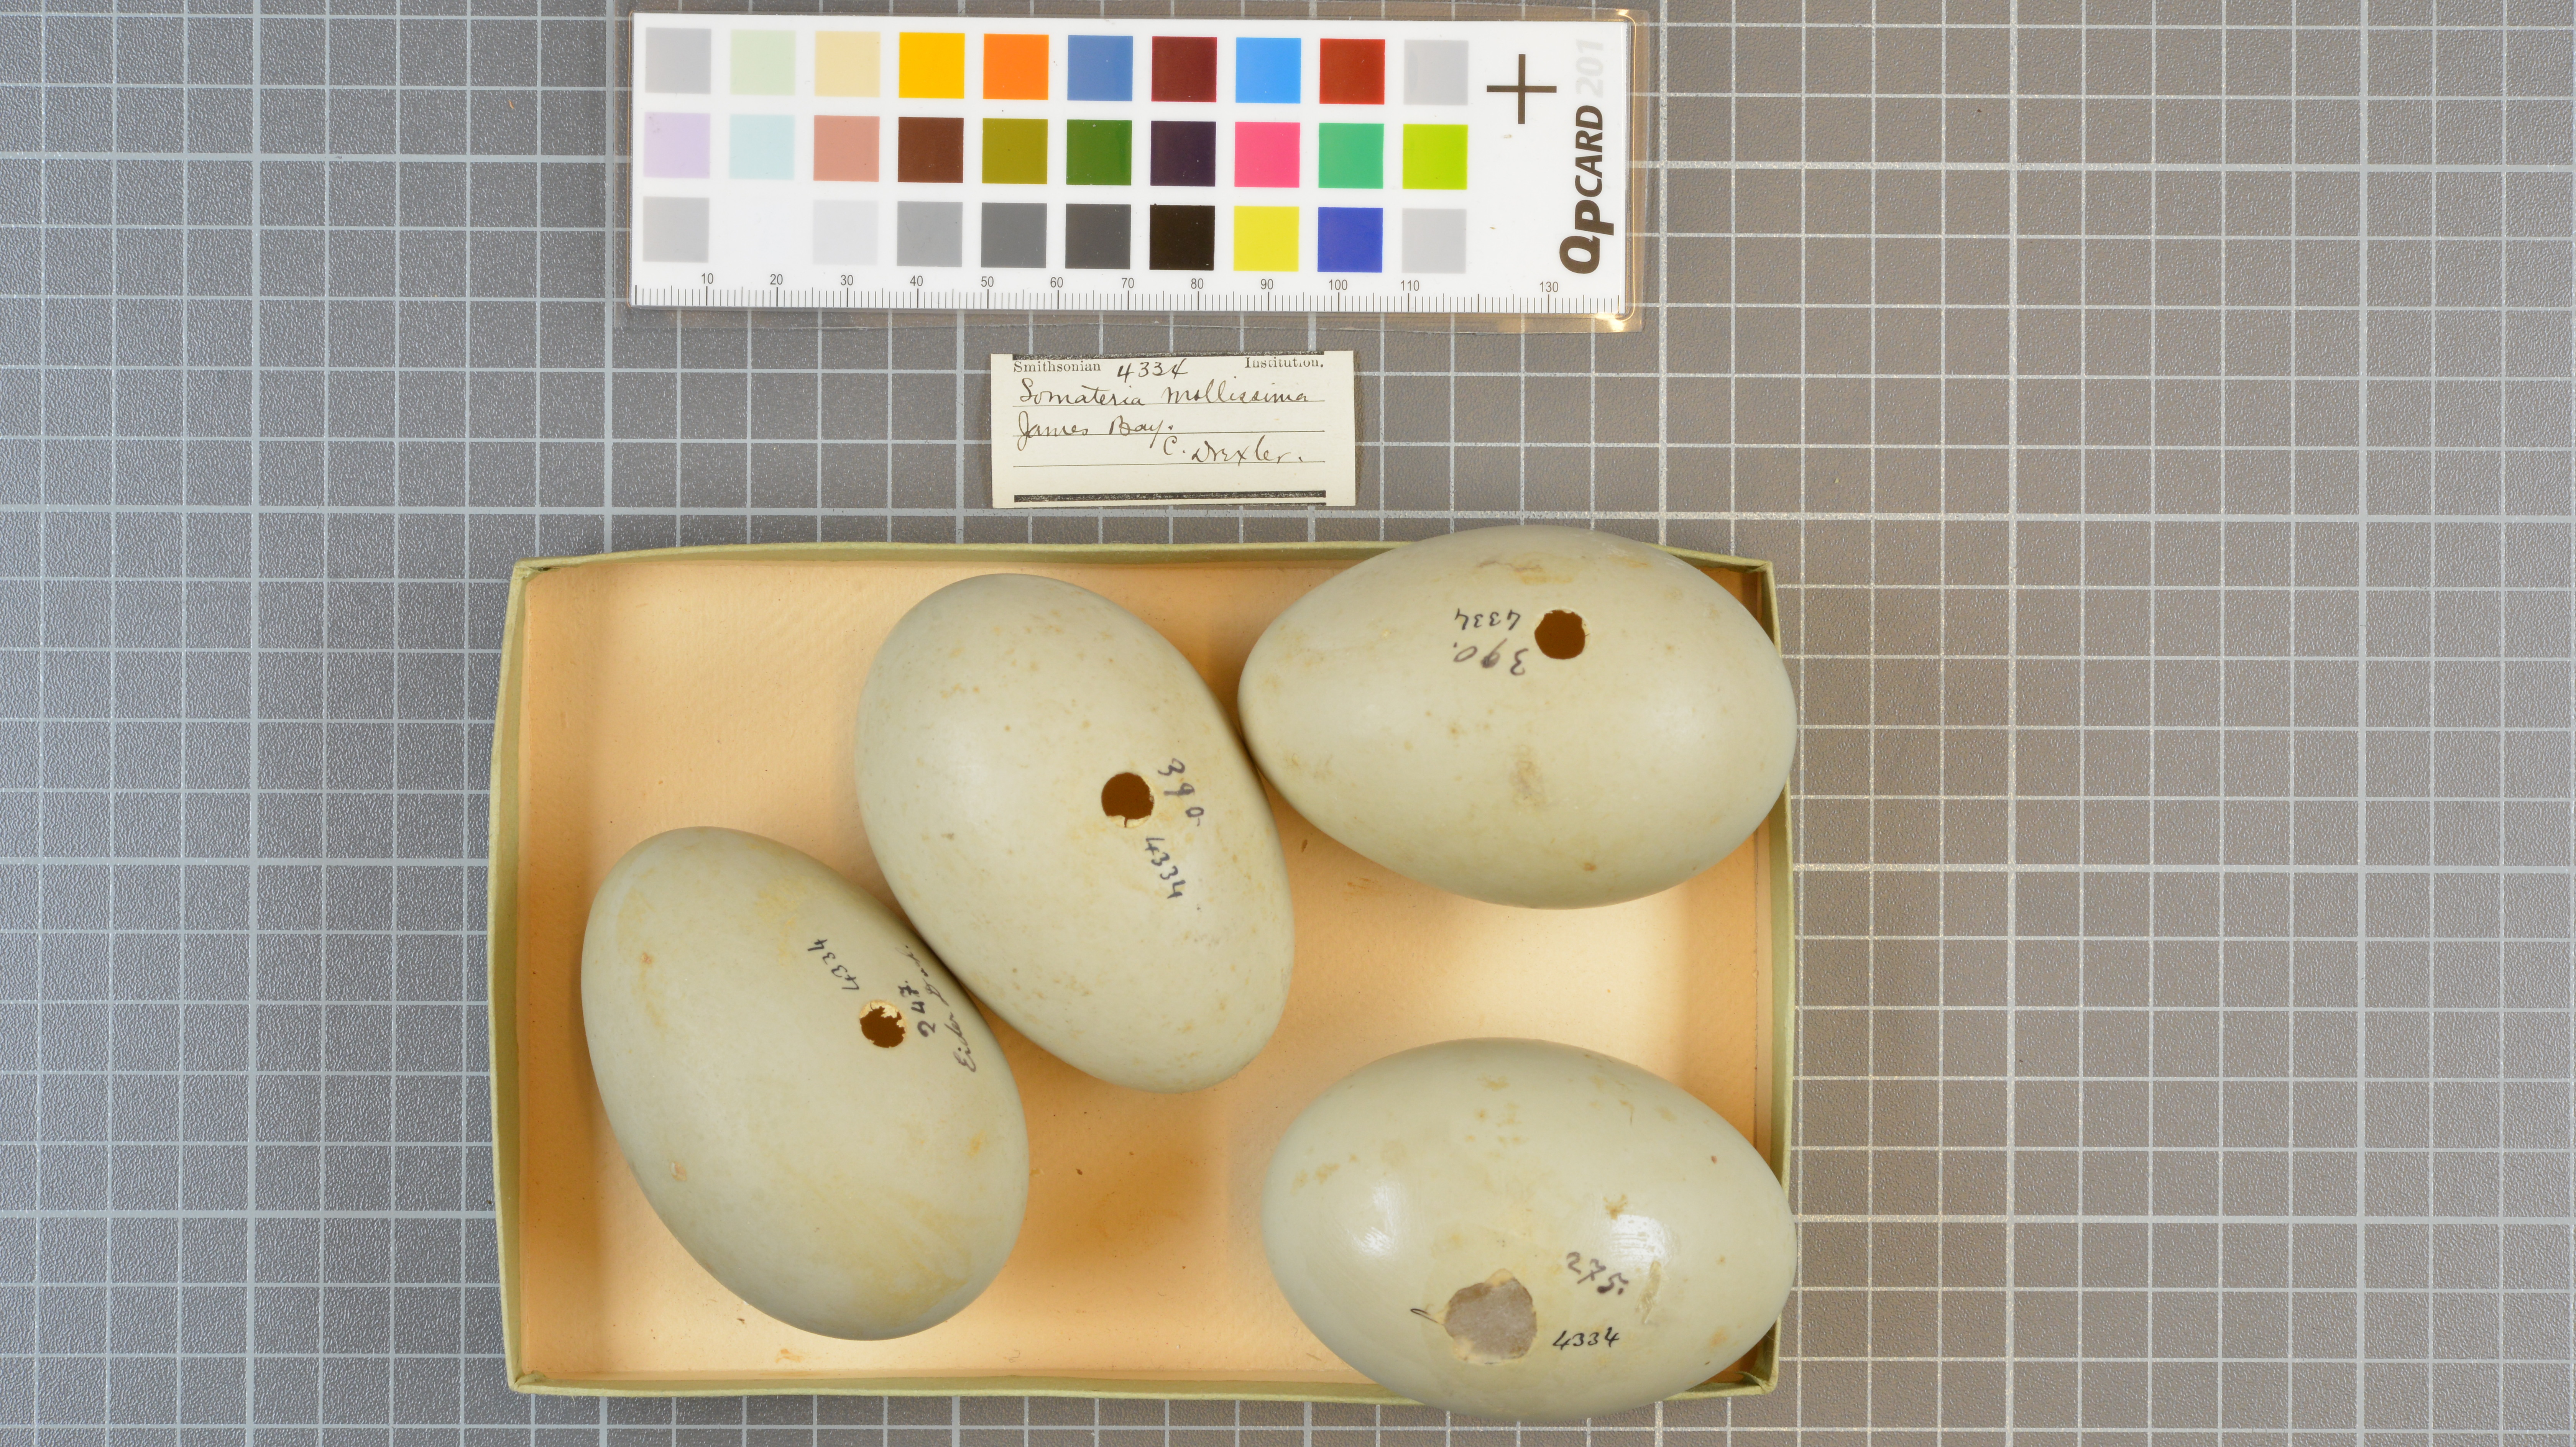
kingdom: Animalia
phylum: Chordata
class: Aves
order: Anseriformes
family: Anatidae
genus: Somateria
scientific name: Somateria mollissima
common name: Common eider
